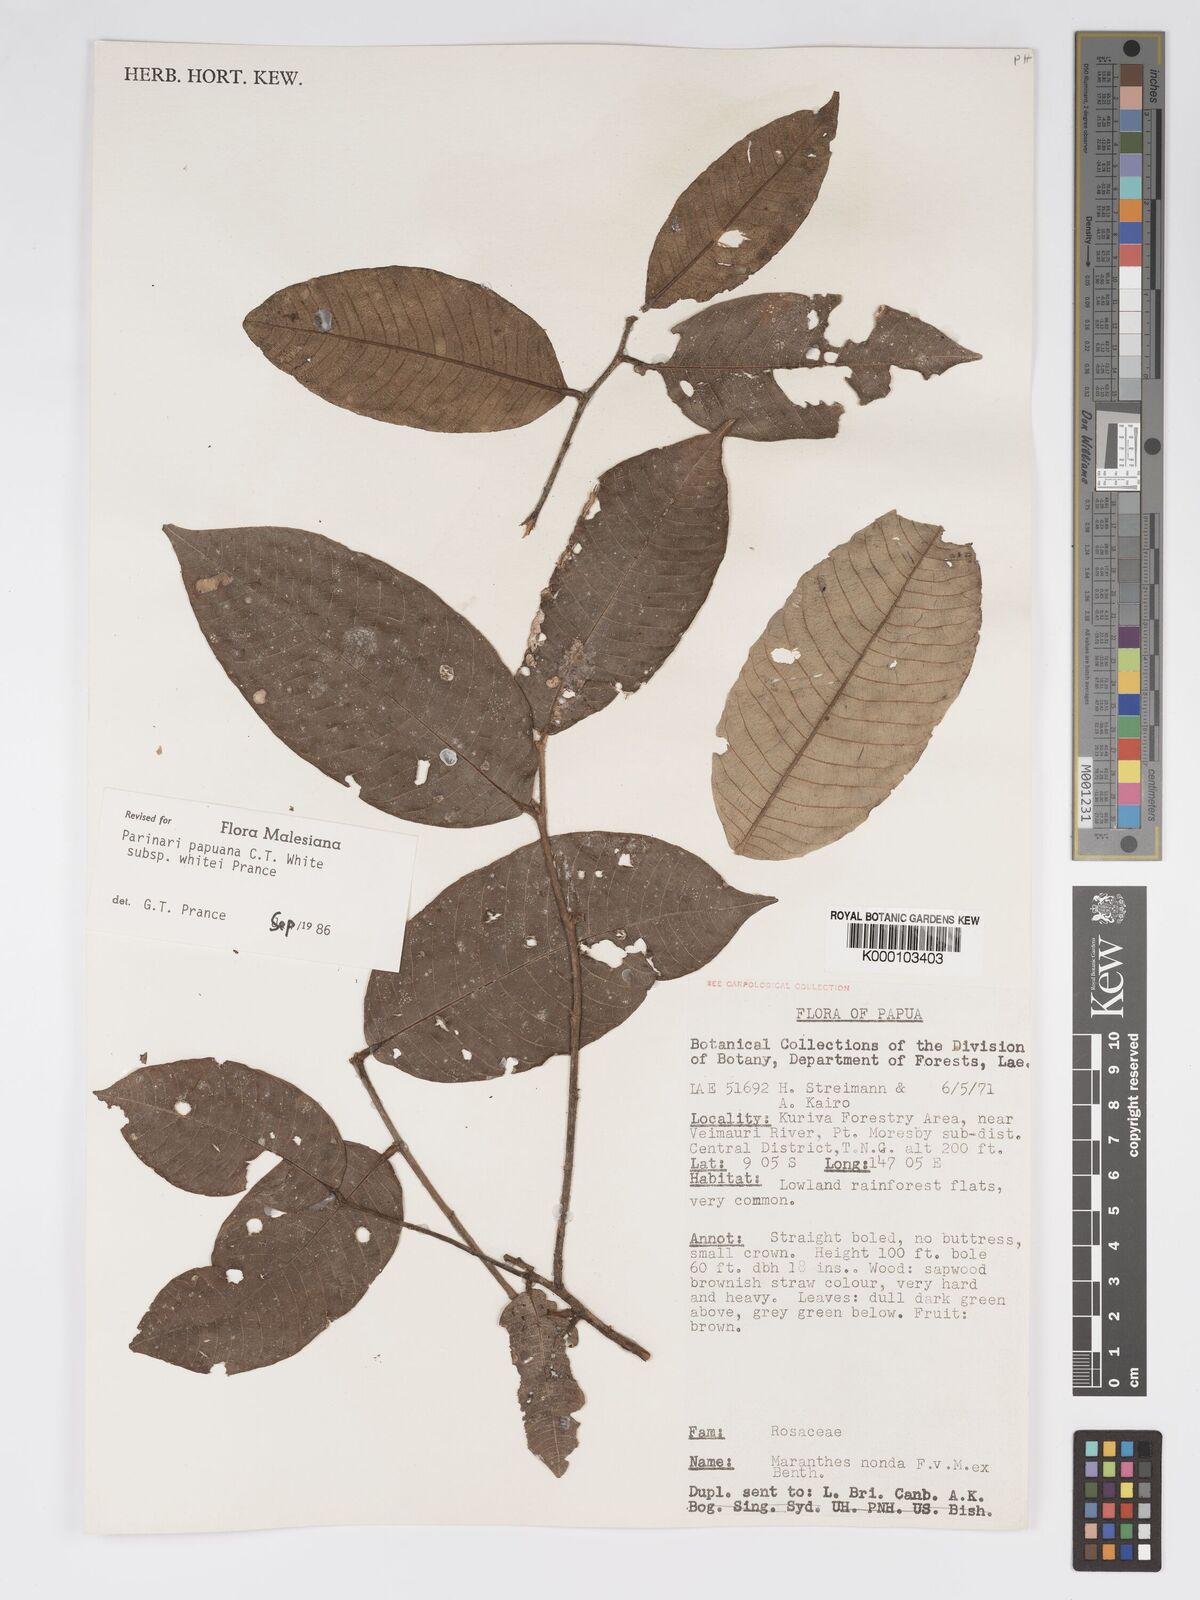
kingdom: Plantae
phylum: Tracheophyta
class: Magnoliopsida
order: Malpighiales
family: Chrysobalanaceae
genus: Parinari
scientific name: Parinari papuana
